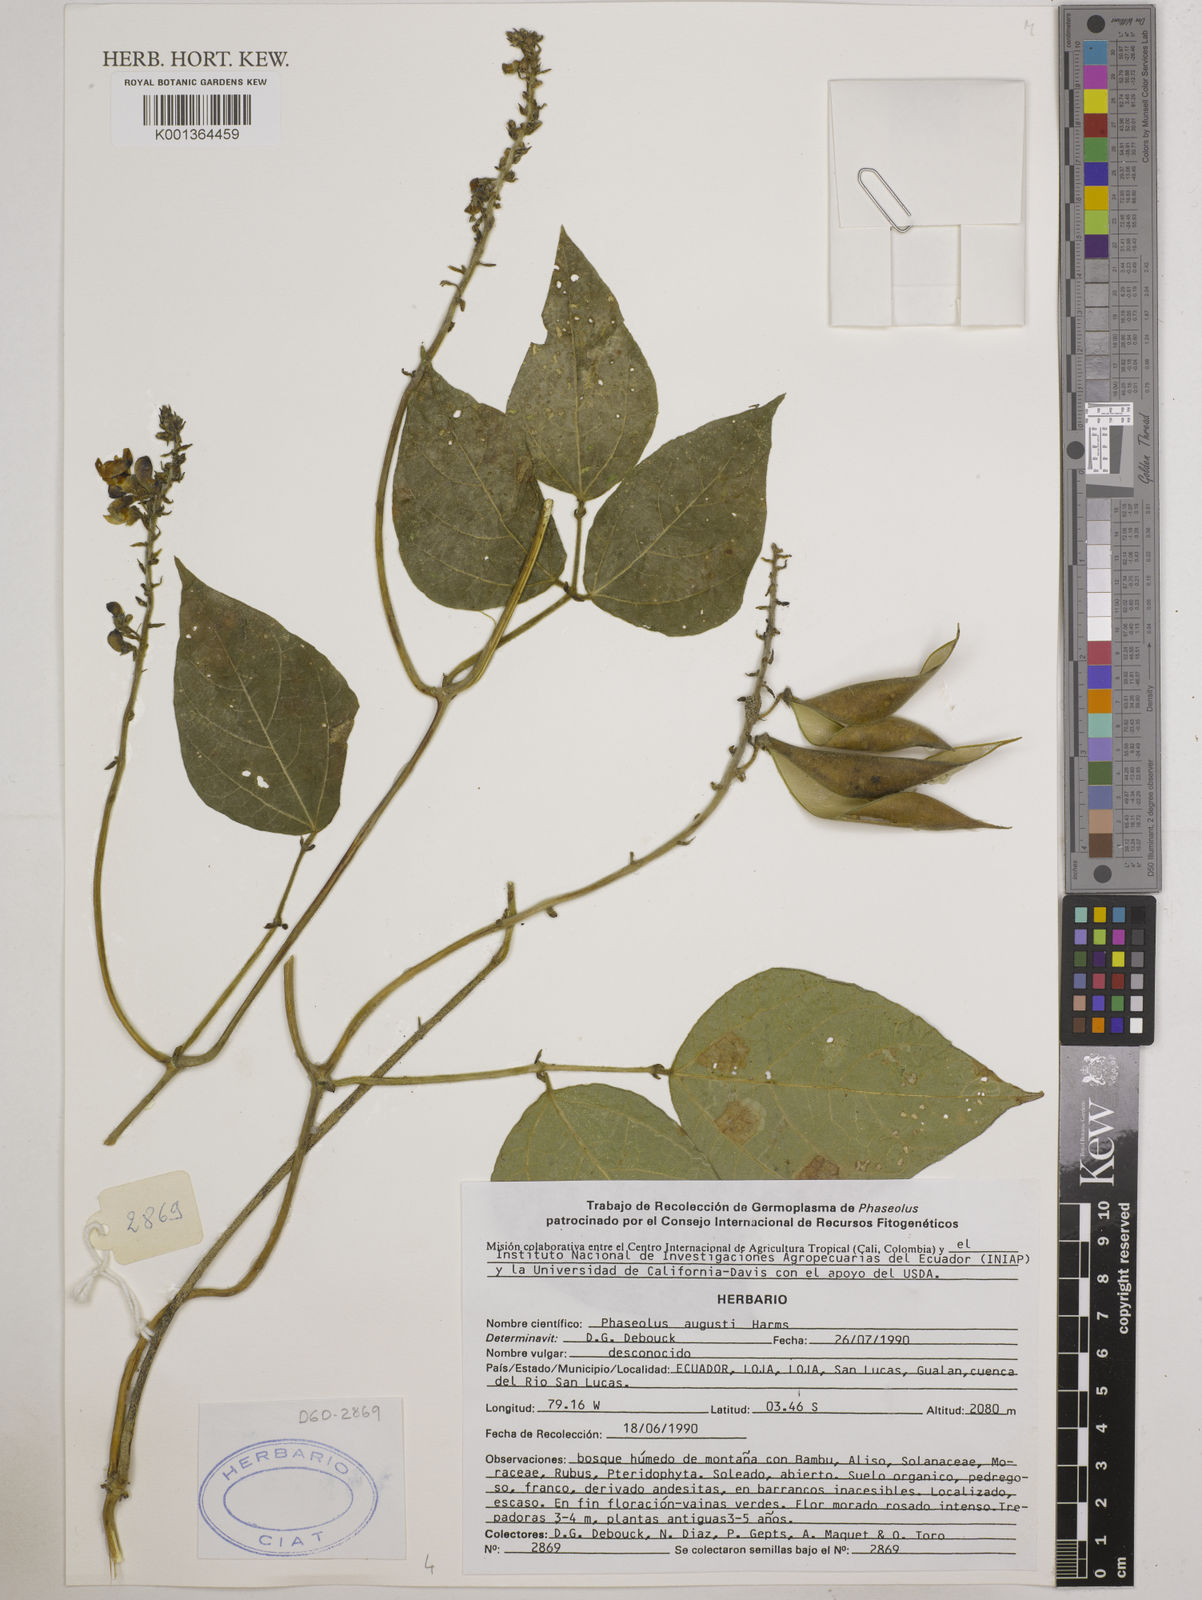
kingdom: Plantae
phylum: Tracheophyta
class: Magnoliopsida
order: Fabales
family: Fabaceae
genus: Phaseolus
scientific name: Phaseolus augusti
